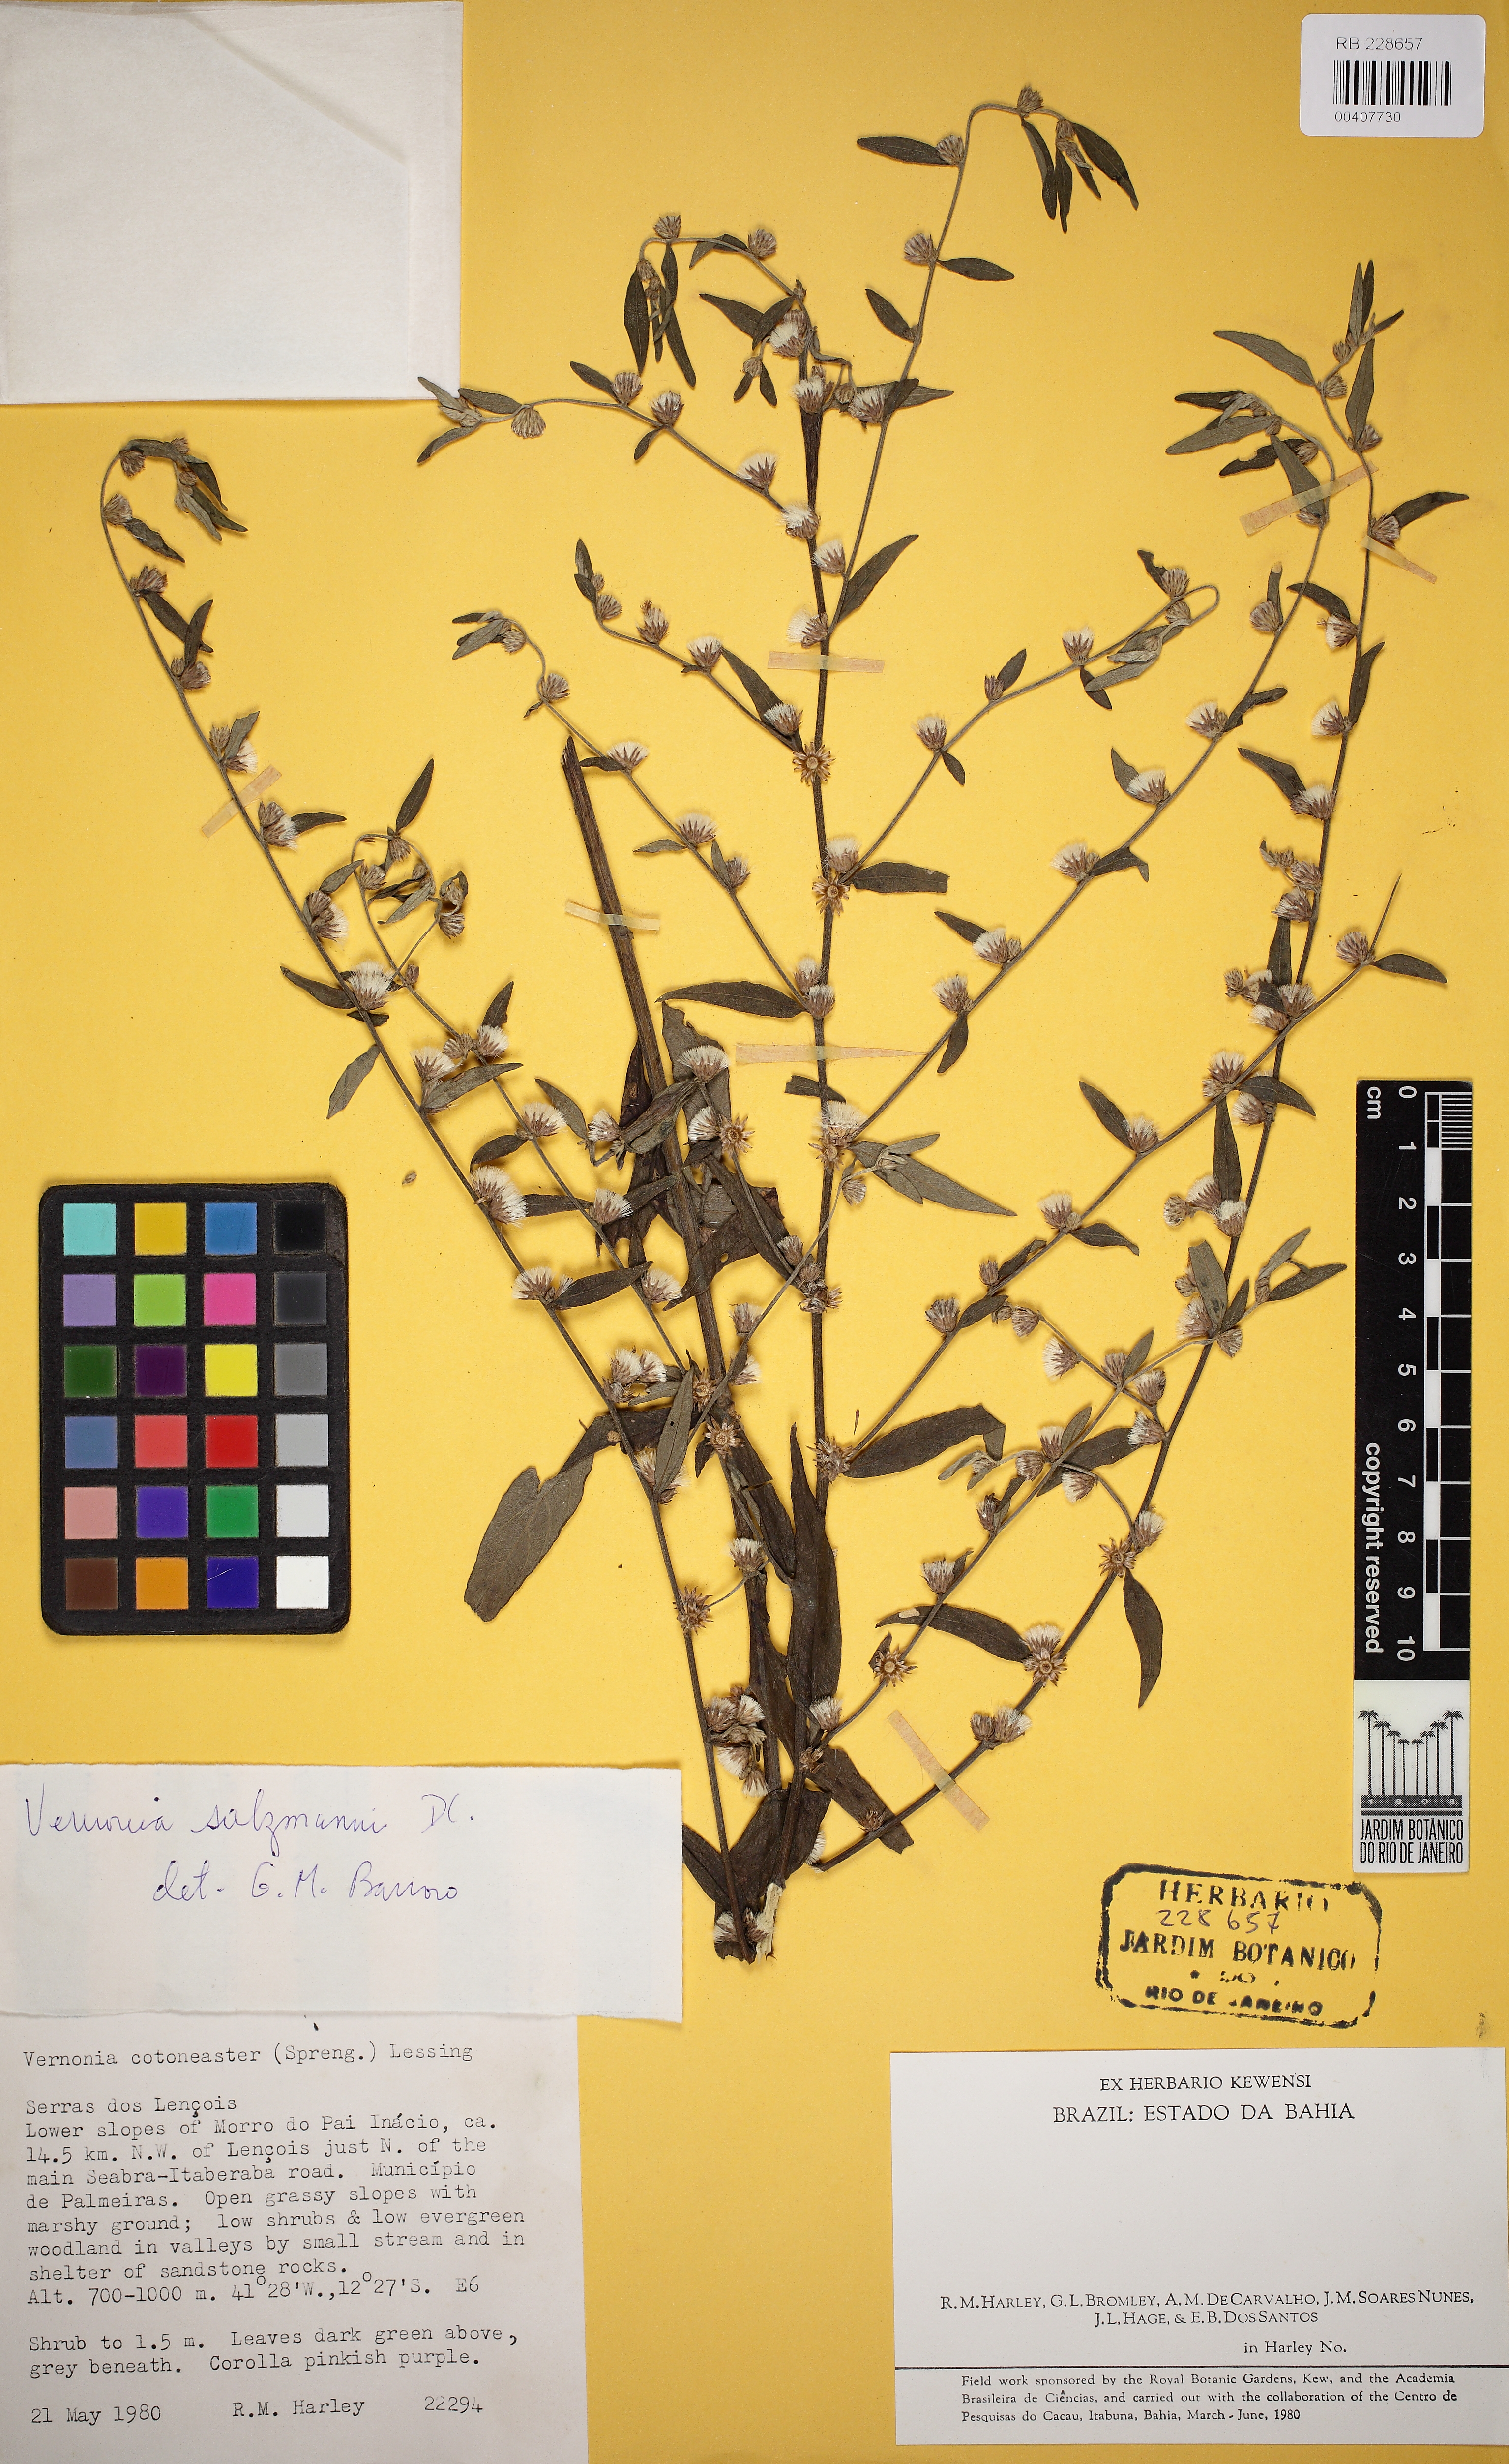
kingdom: Plantae
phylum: Tracheophyta
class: Magnoliopsida
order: Asterales
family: Asteraceae
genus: Lepidaploa
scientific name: Lepidaploa salzmannii
